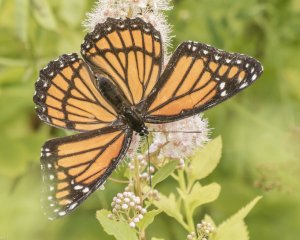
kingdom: Animalia
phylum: Arthropoda
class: Insecta
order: Lepidoptera
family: Nymphalidae
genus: Limenitis
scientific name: Limenitis archippus
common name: Viceroy
